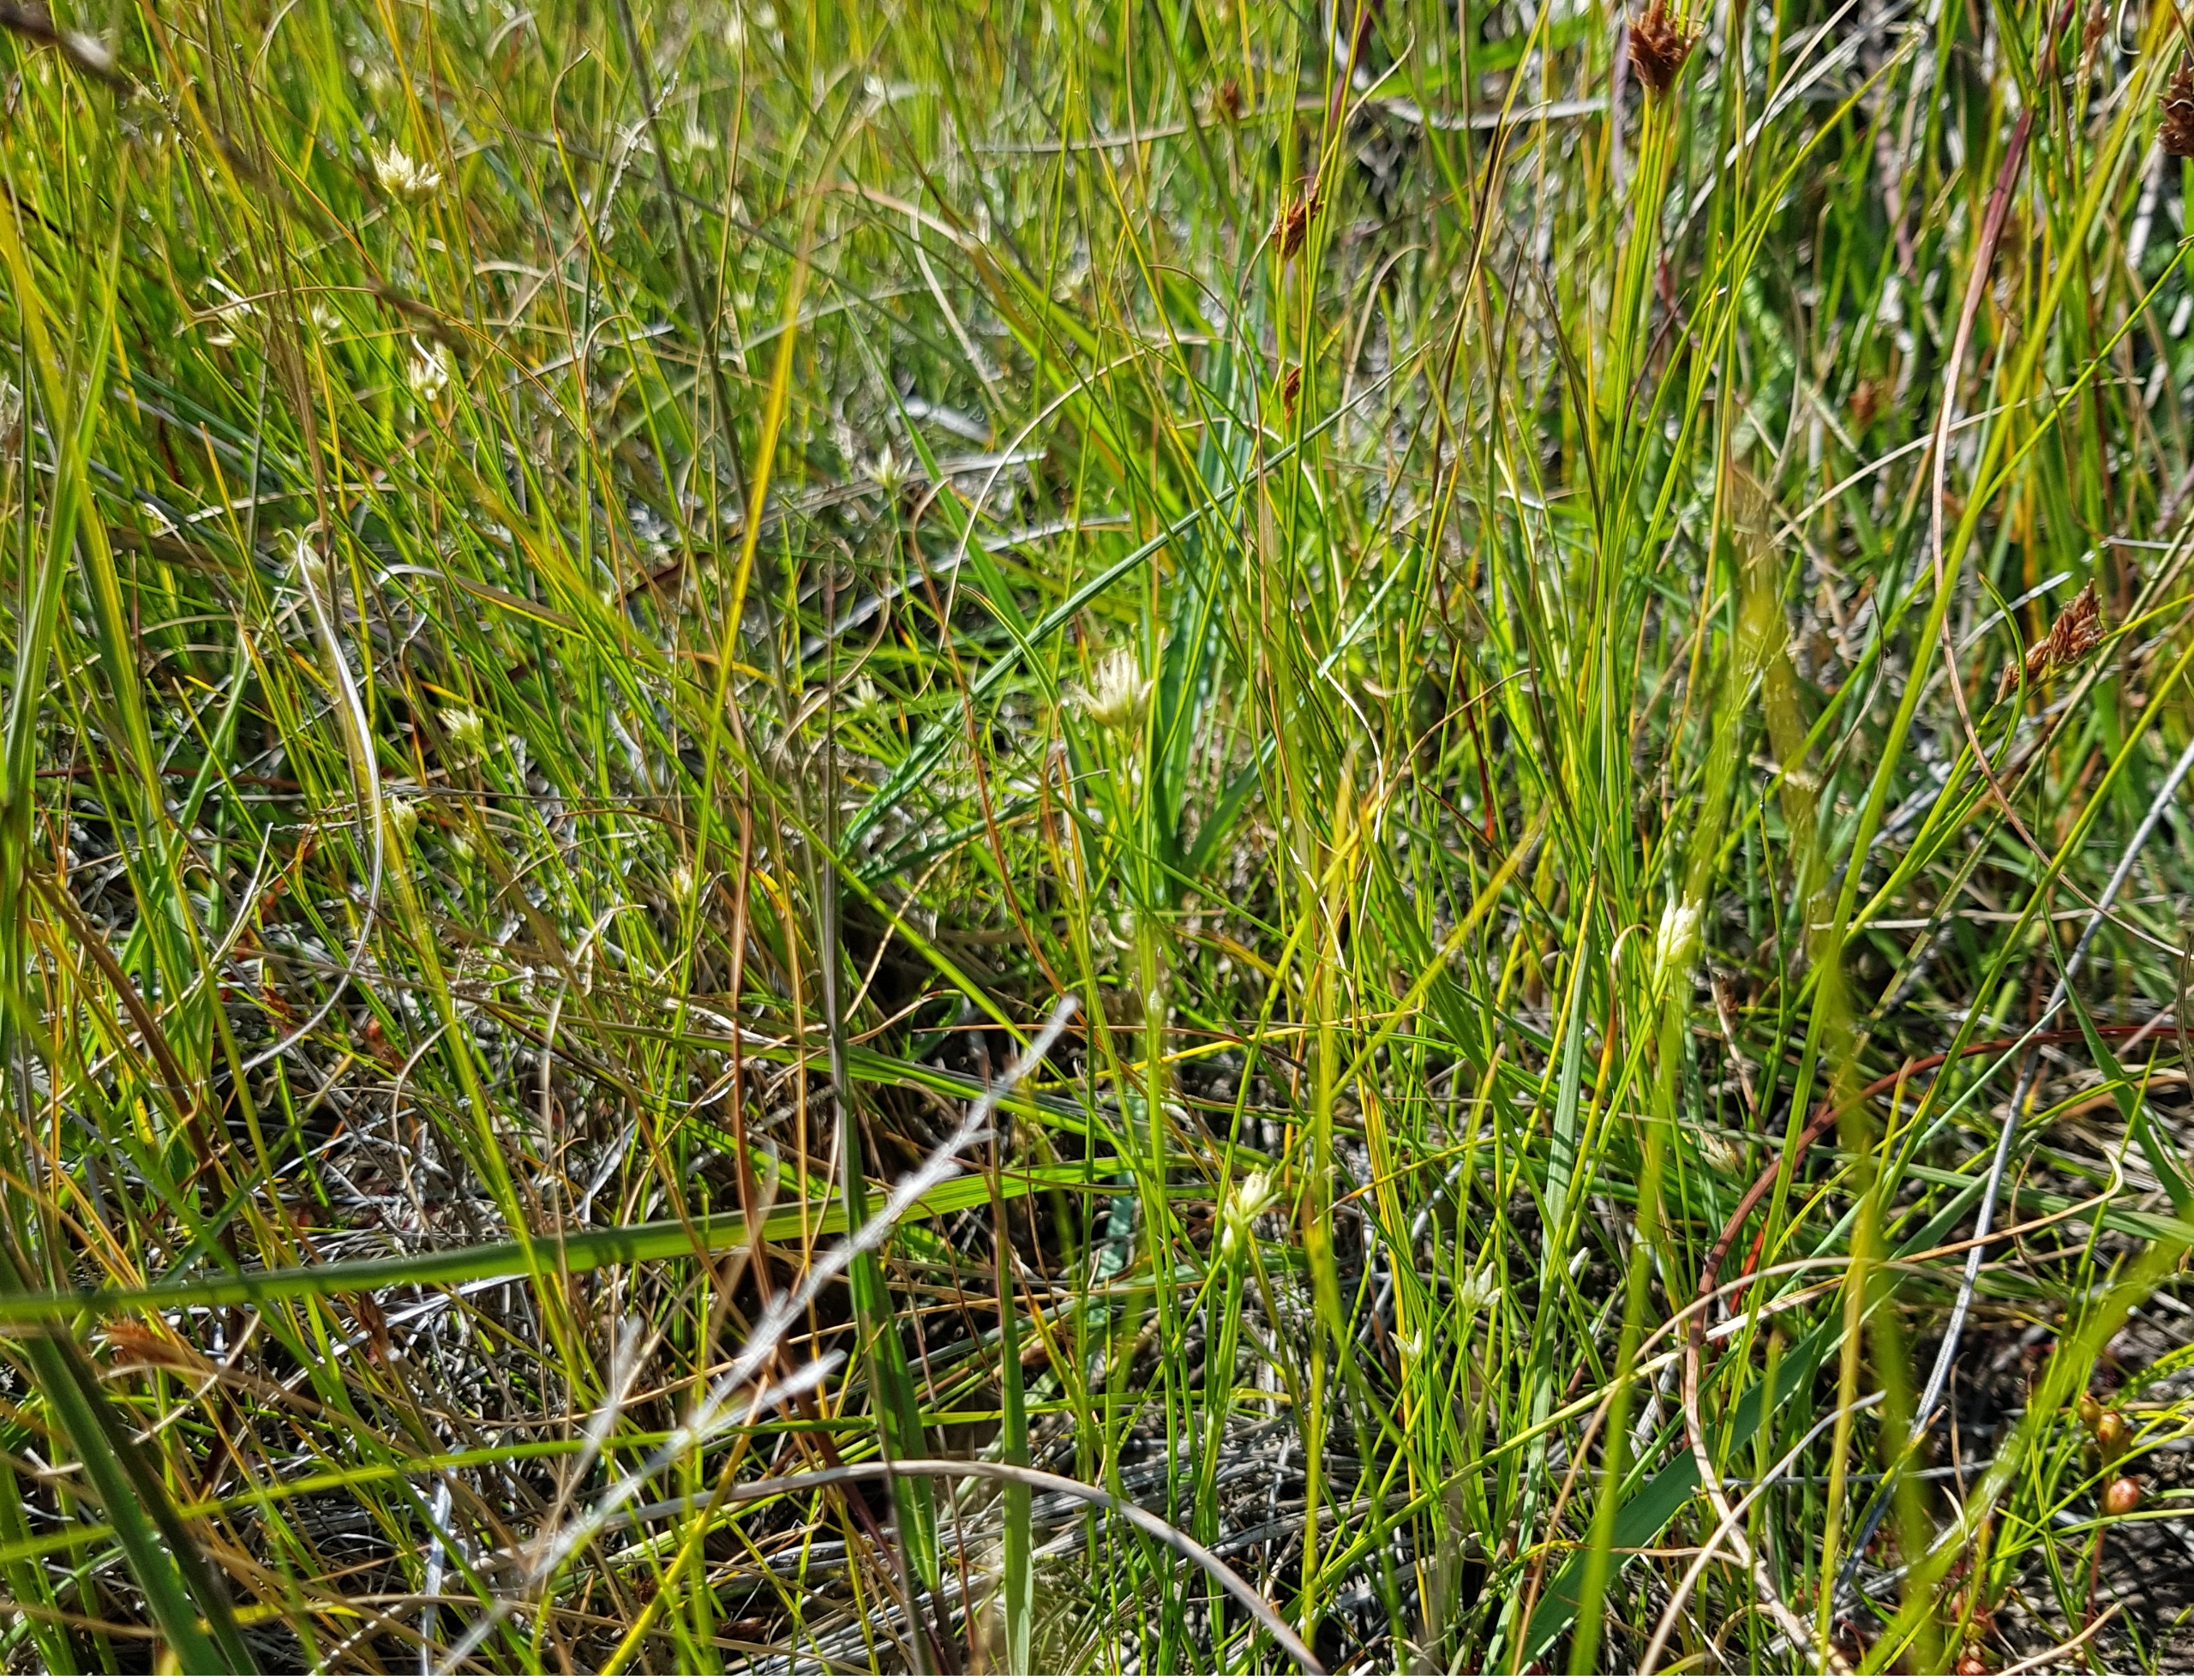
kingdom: Plantae
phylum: Tracheophyta
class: Liliopsida
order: Poales
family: Cyperaceae
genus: Rhynchospora
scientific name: Rhynchospora alba
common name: Hvid næbfrø
